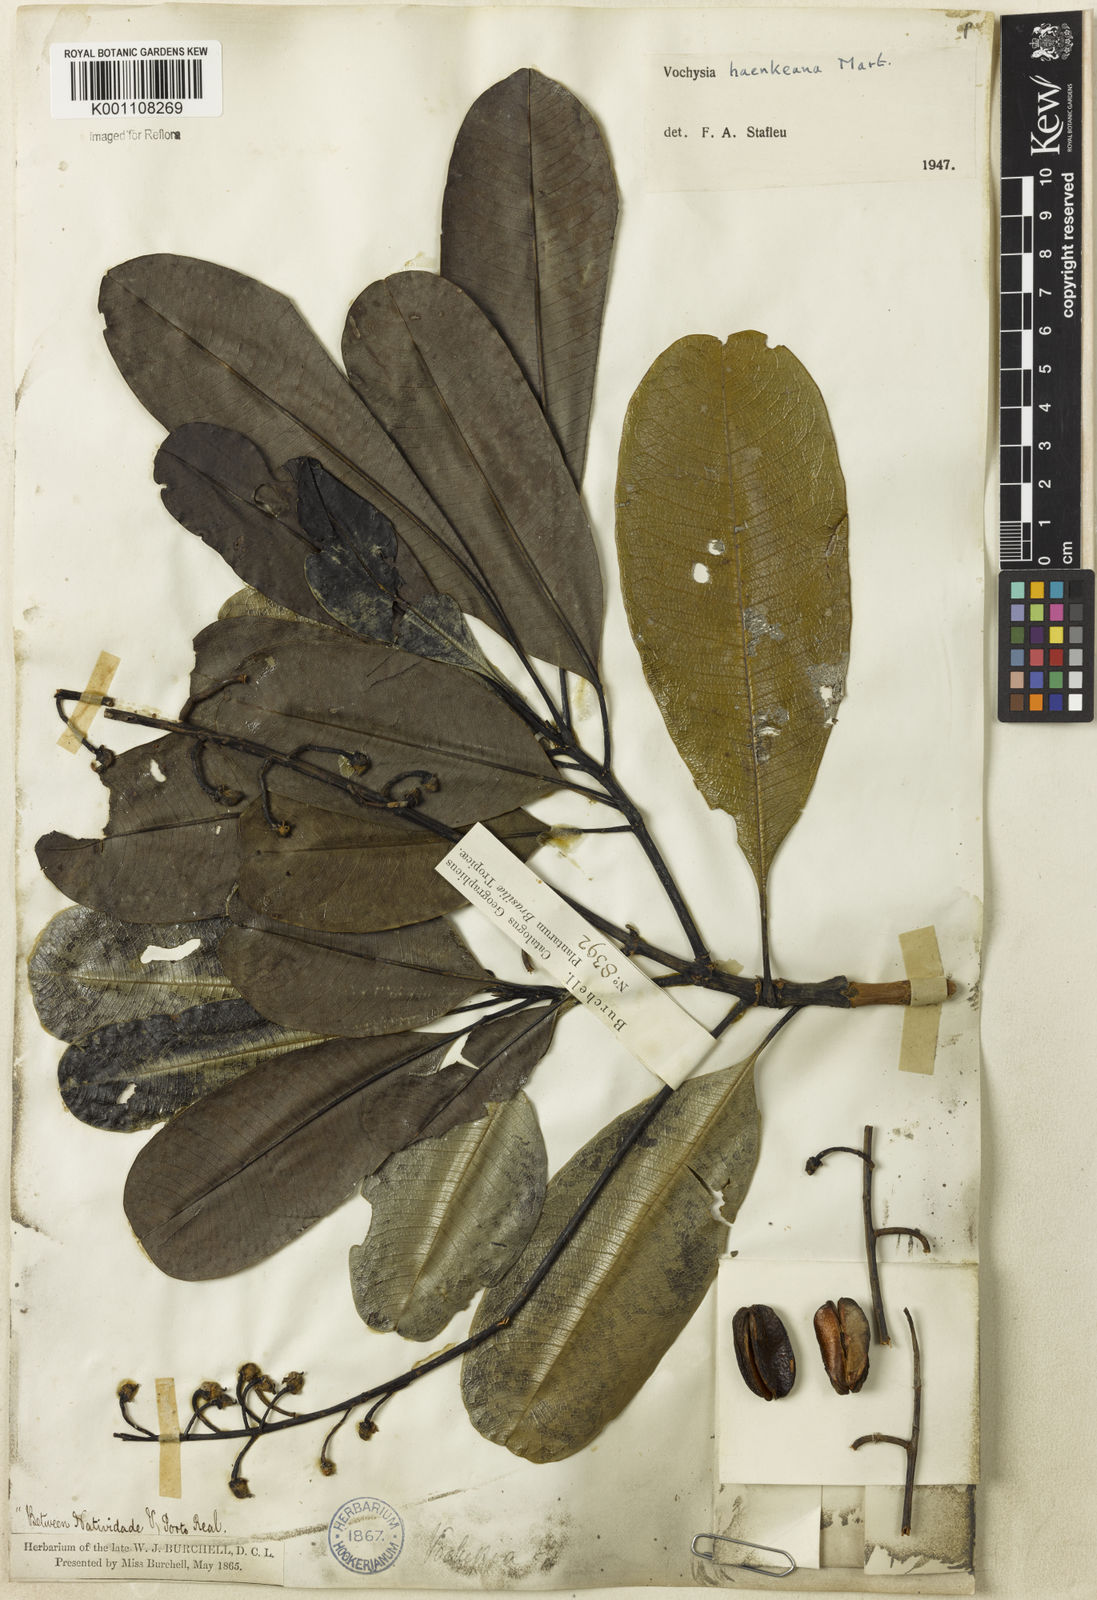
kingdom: Plantae
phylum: Tracheophyta
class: Magnoliopsida
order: Myrtales
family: Vochysiaceae
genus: Vochysia
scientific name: Vochysia haenkeana
